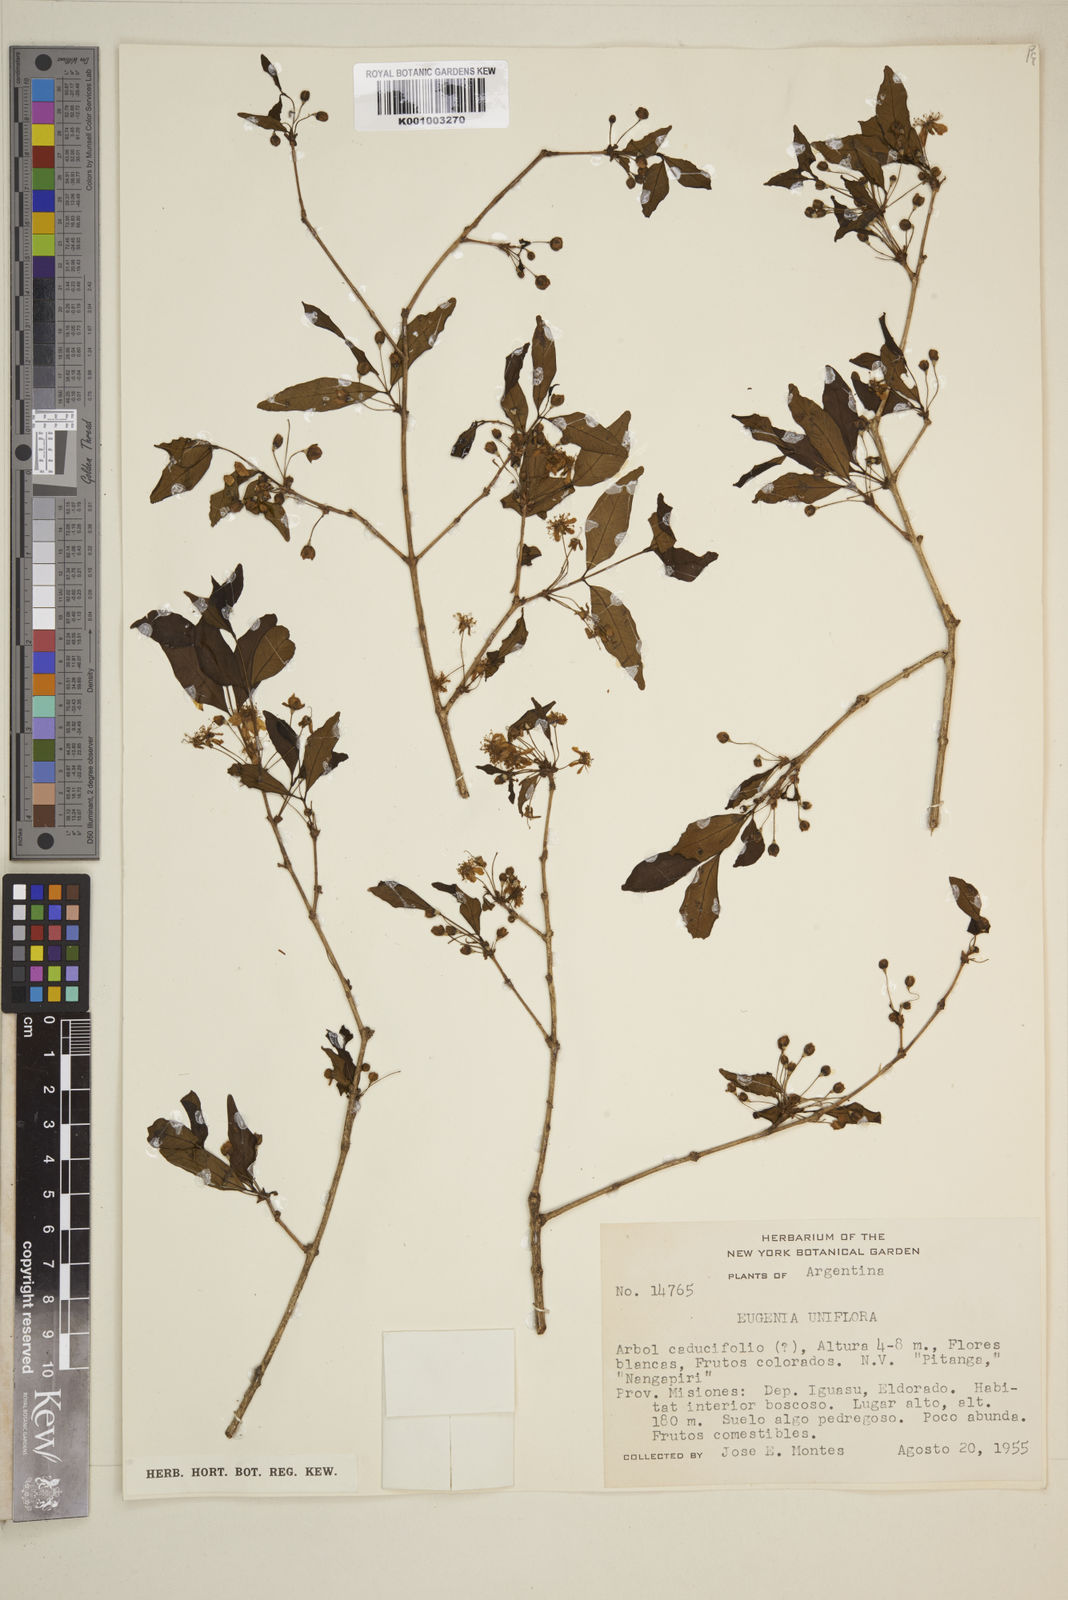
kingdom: Plantae
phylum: Tracheophyta
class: Magnoliopsida
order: Myrtales
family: Myrtaceae
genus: Eugenia
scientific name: Eugenia uniflora
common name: Surinam cherry
